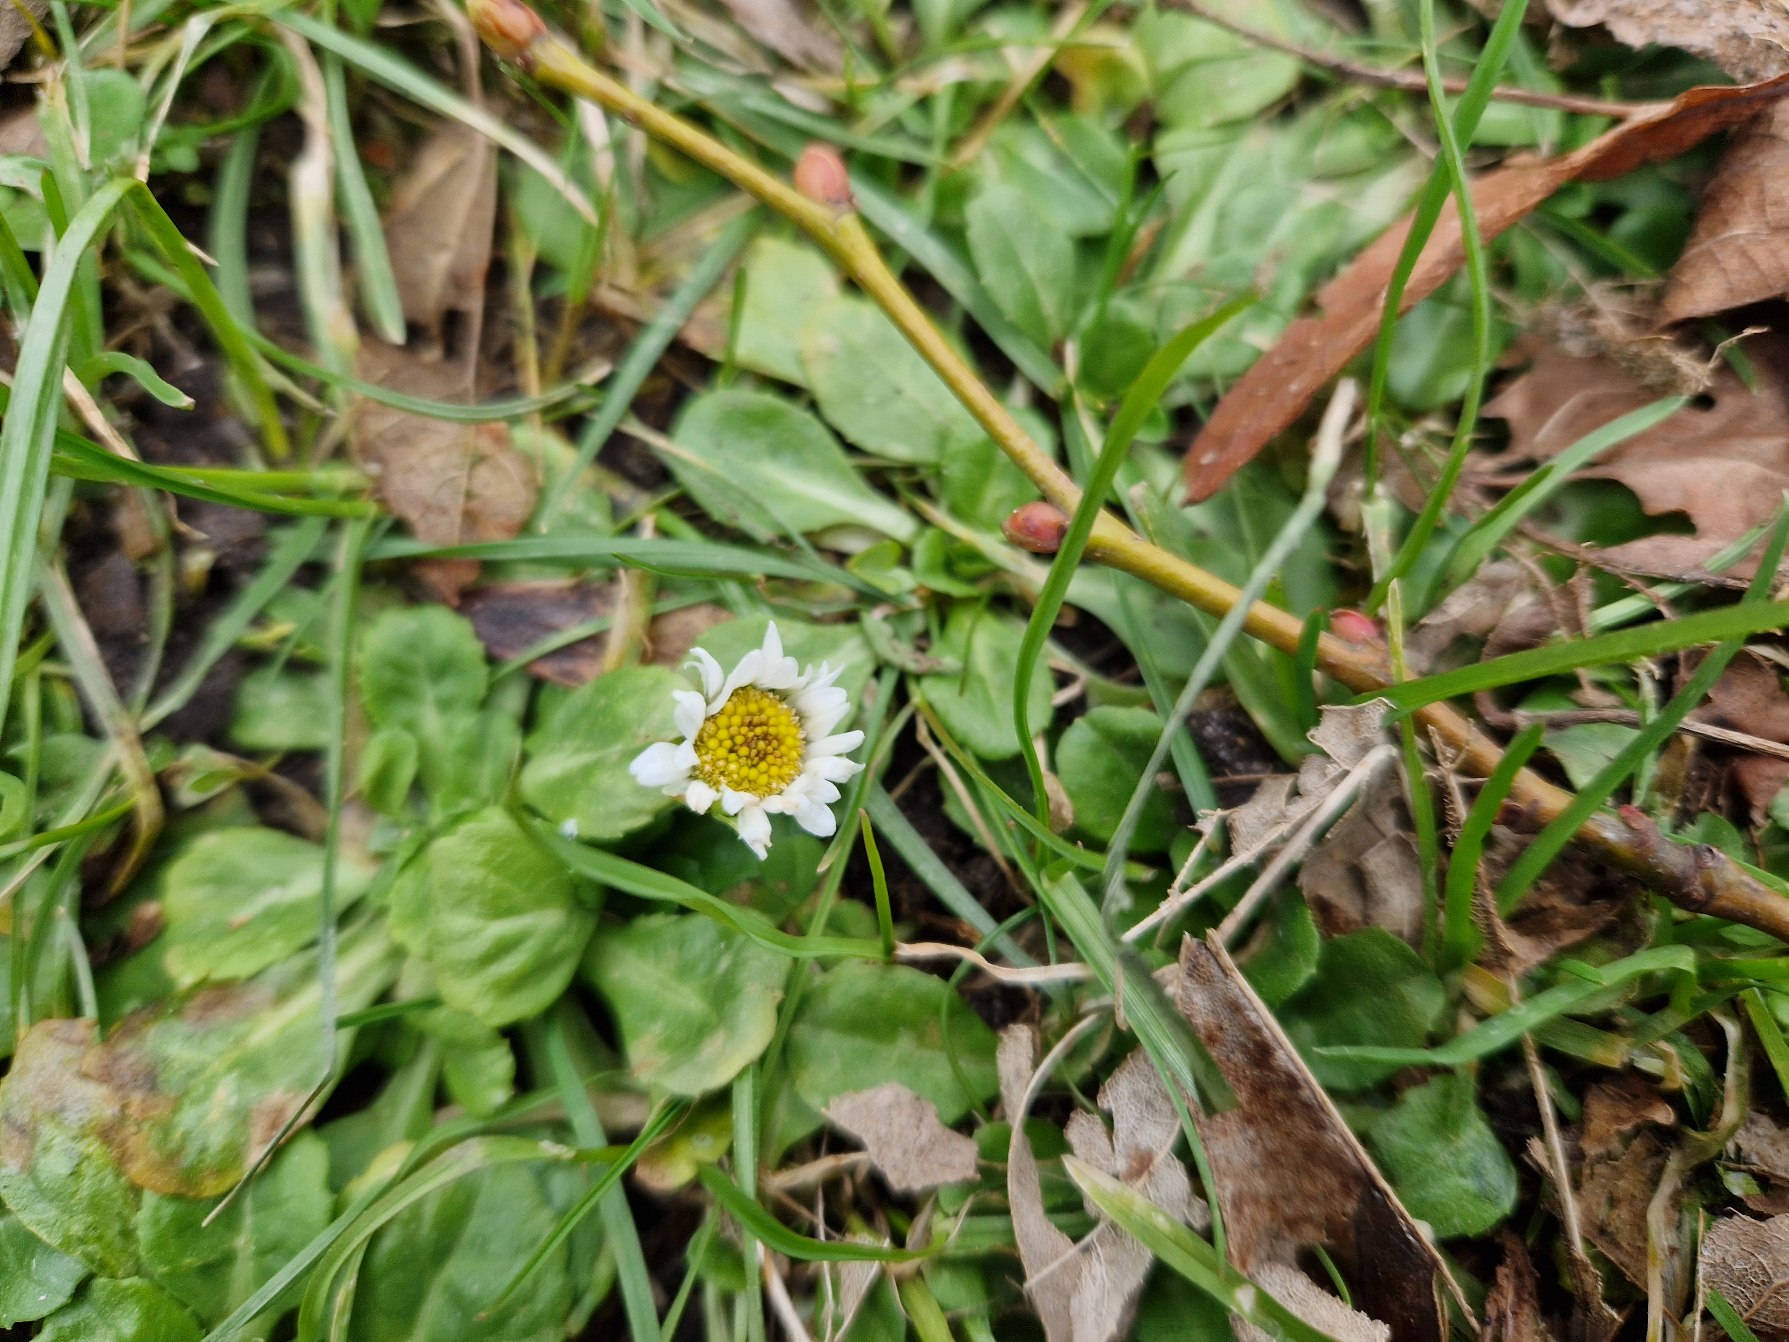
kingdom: Plantae
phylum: Tracheophyta
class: Magnoliopsida
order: Asterales
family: Asteraceae
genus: Bellis
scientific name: Bellis perennis
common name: Tusindfryd
